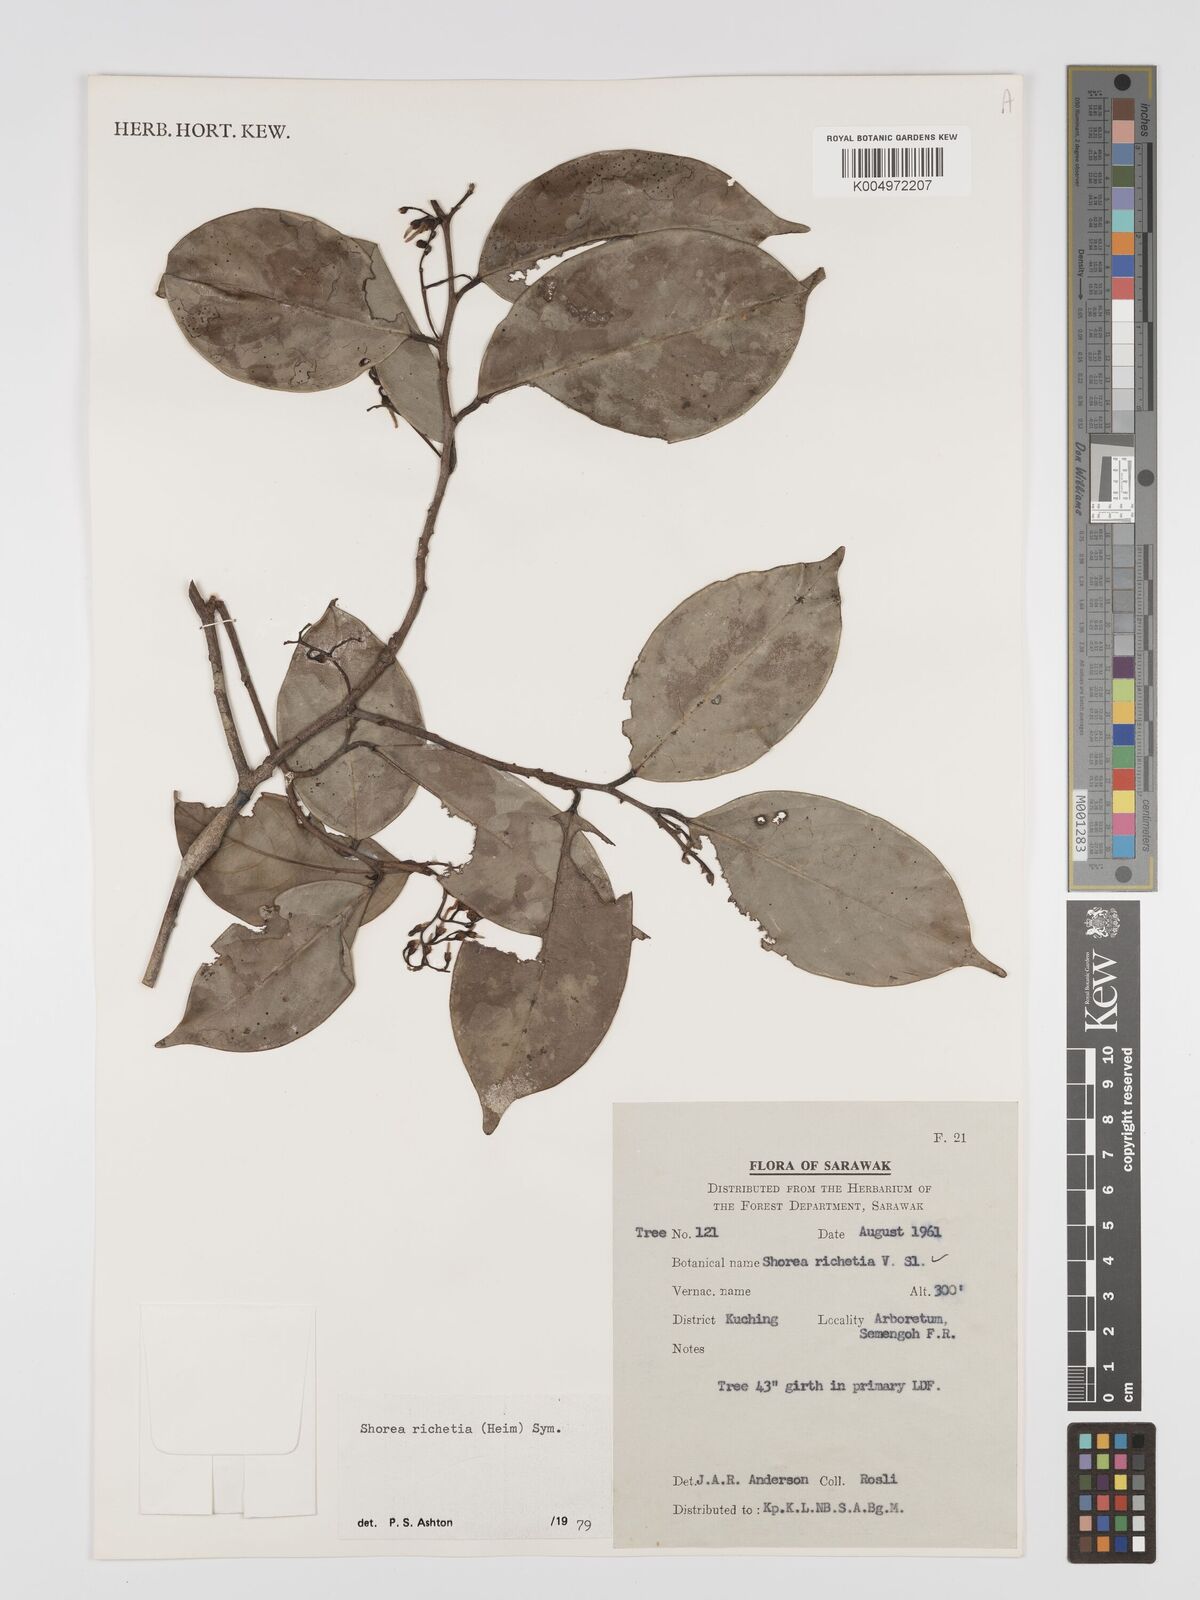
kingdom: Plantae
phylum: Tracheophyta
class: Magnoliopsida
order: Malvales
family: Dipterocarpaceae
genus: Shorea
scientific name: Shorea richetia
